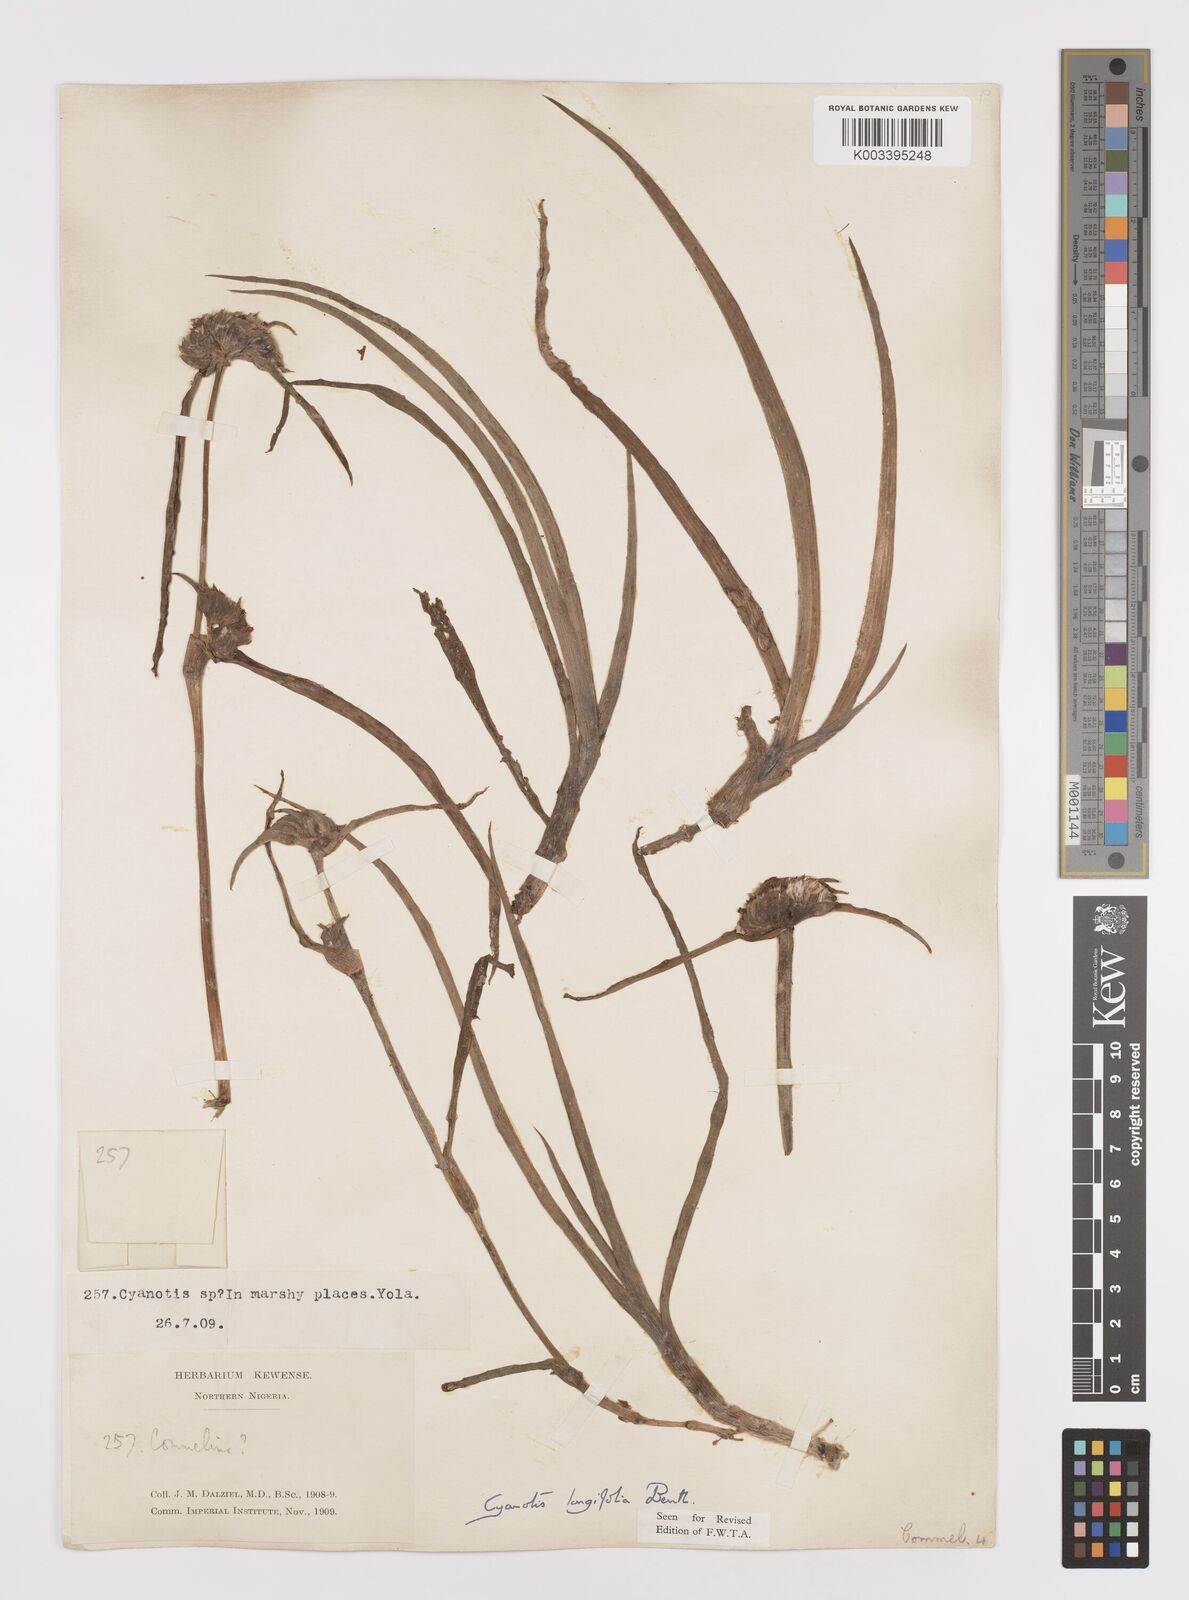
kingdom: Plantae
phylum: Tracheophyta
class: Liliopsida
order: Commelinales
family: Commelinaceae
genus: Cyanotis
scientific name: Cyanotis
